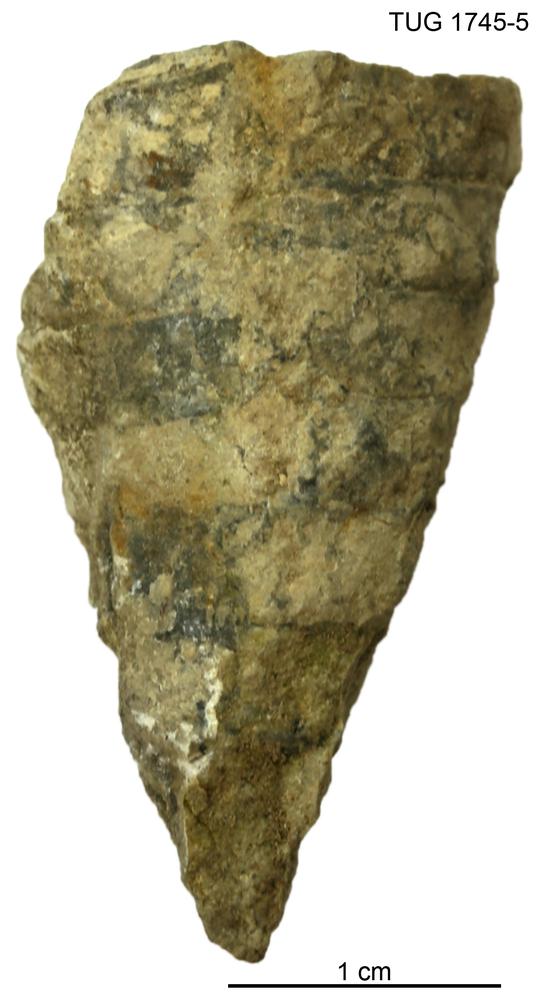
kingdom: Animalia
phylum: Mollusca
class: Cephalopoda
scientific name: Cephalopoda
